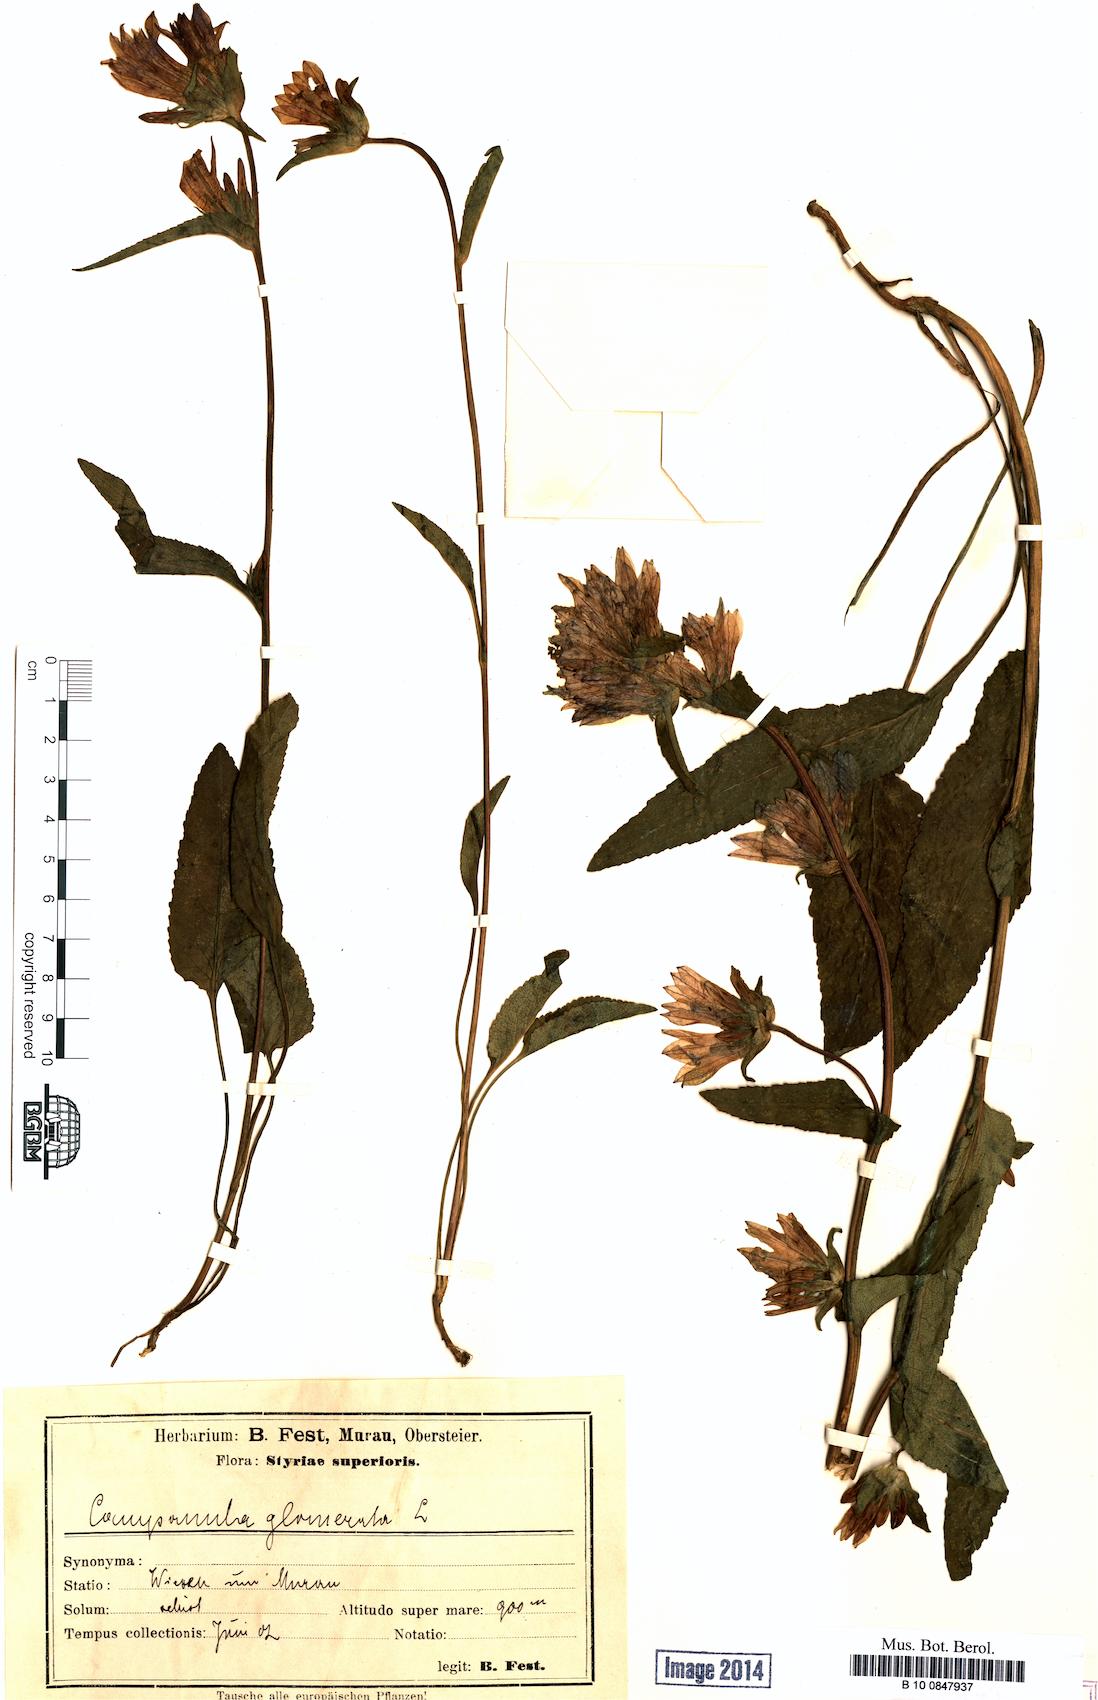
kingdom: Plantae
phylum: Tracheophyta
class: Magnoliopsida
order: Asterales
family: Campanulaceae
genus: Campanula
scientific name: Campanula glomerata
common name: Clustered bellflower
